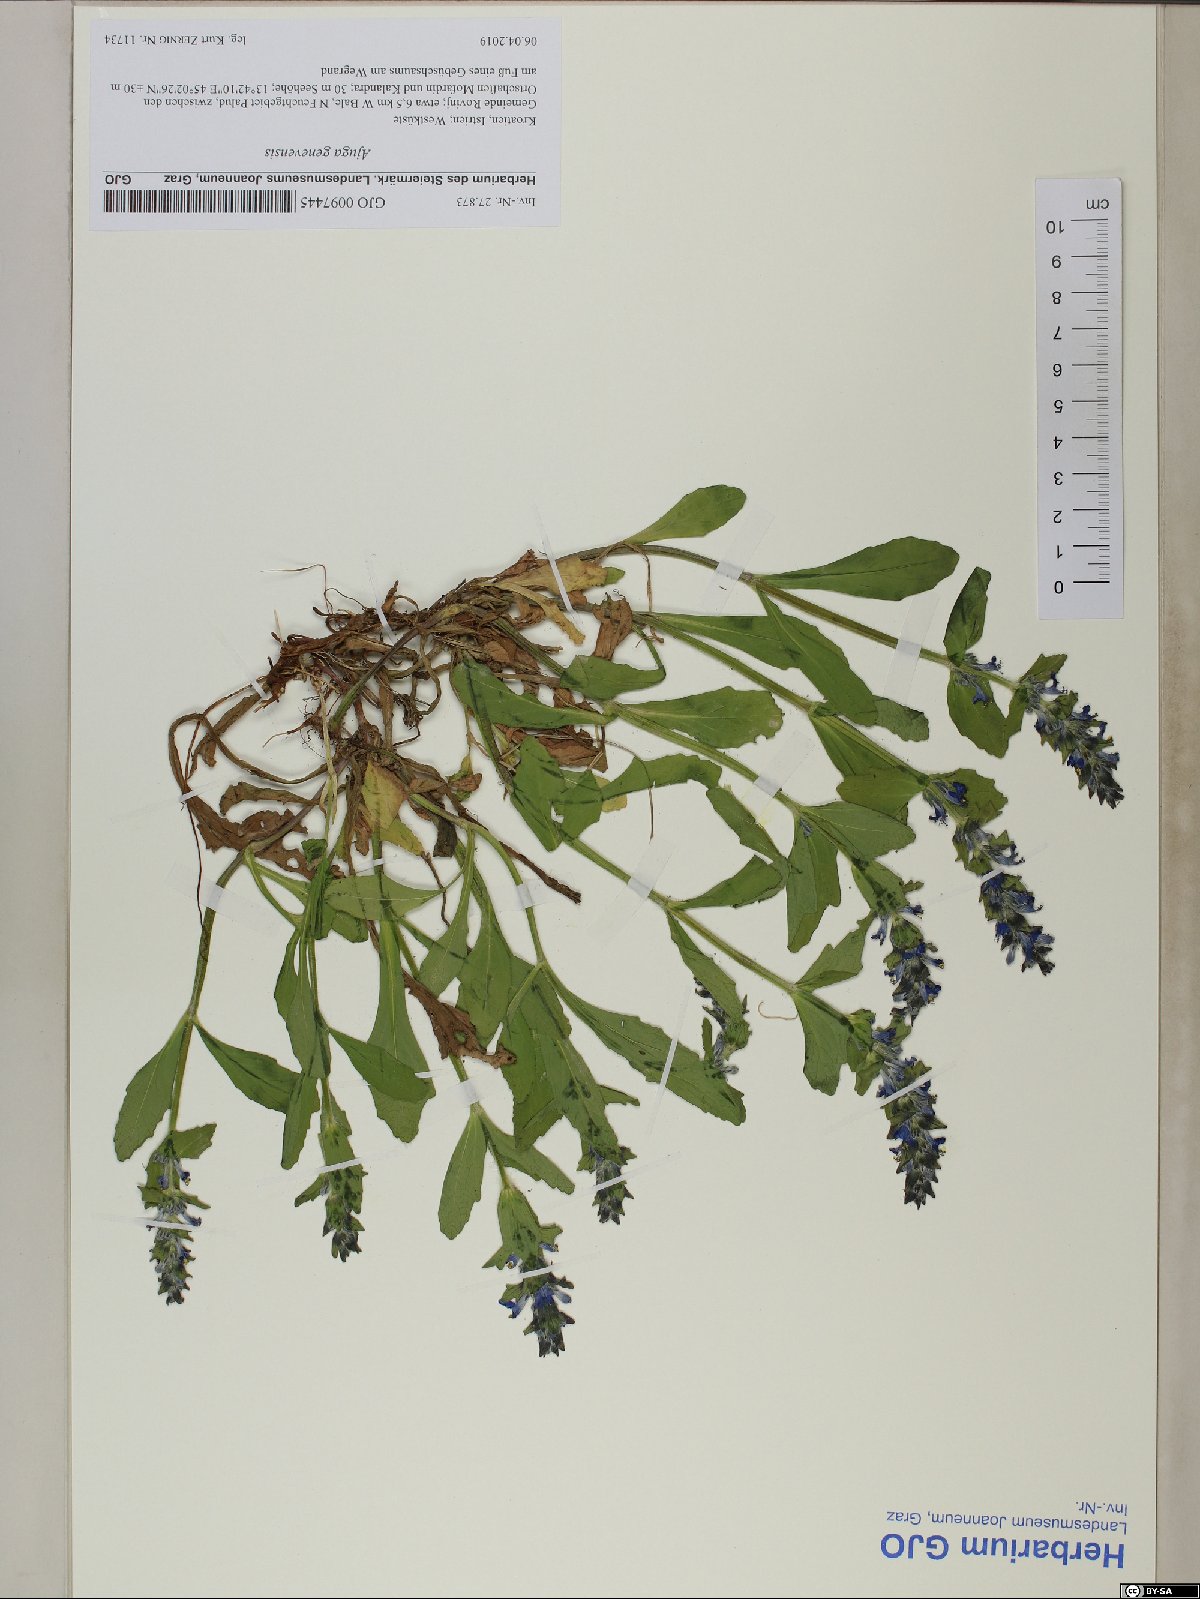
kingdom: Plantae
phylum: Tracheophyta
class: Magnoliopsida
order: Lamiales
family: Lamiaceae
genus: Ajuga
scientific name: Ajuga genevensis
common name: Blue bugle
